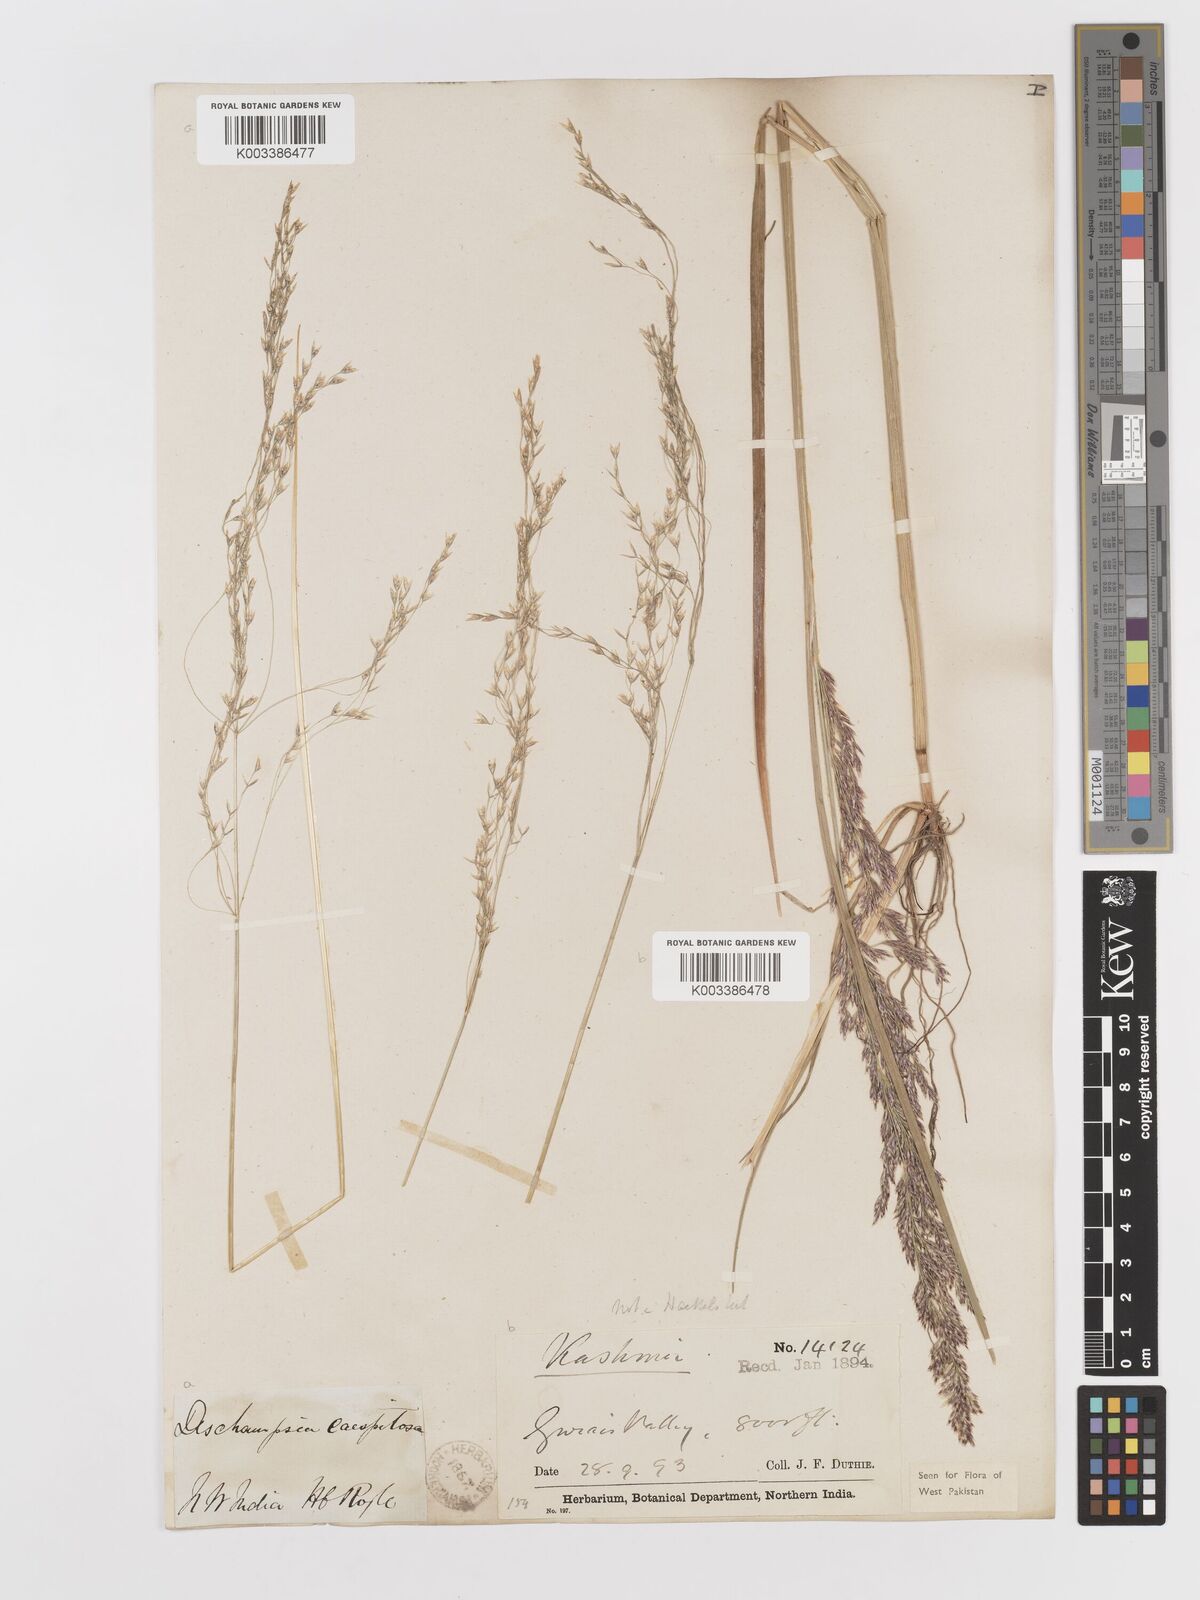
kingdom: Plantae
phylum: Tracheophyta
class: Liliopsida
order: Poales
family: Poaceae
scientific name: Poaceae
